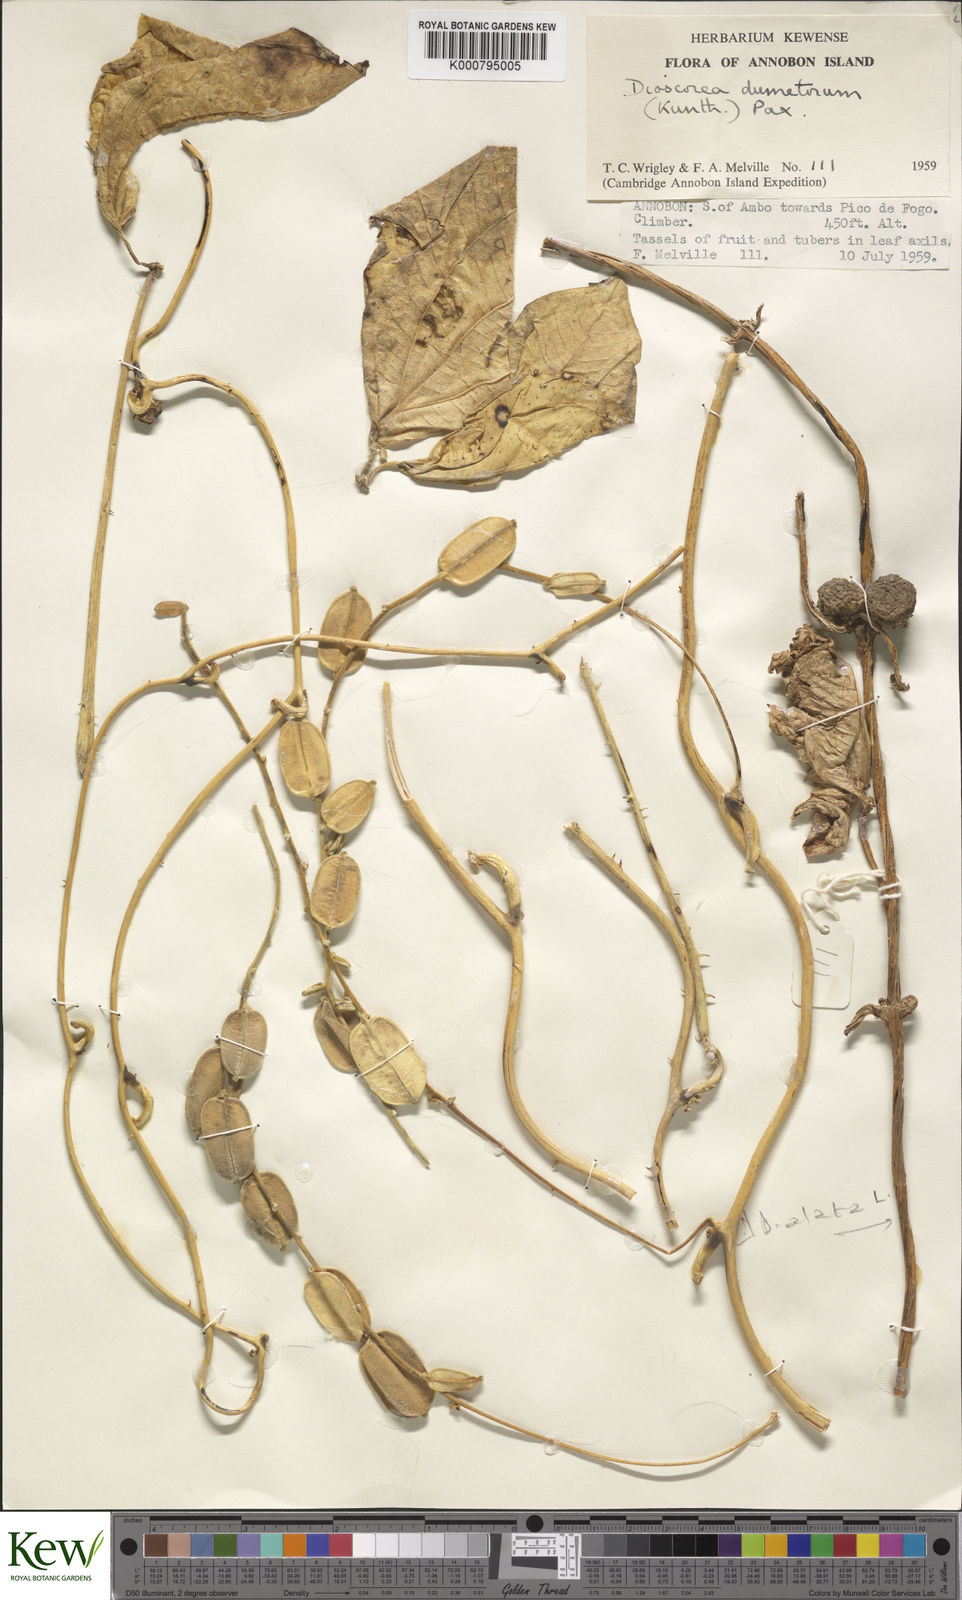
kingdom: Plantae
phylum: Tracheophyta
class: Liliopsida
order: Dioscoreales
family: Dioscoreaceae
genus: Dioscorea
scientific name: Dioscorea dumetorum
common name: African bitter yam
